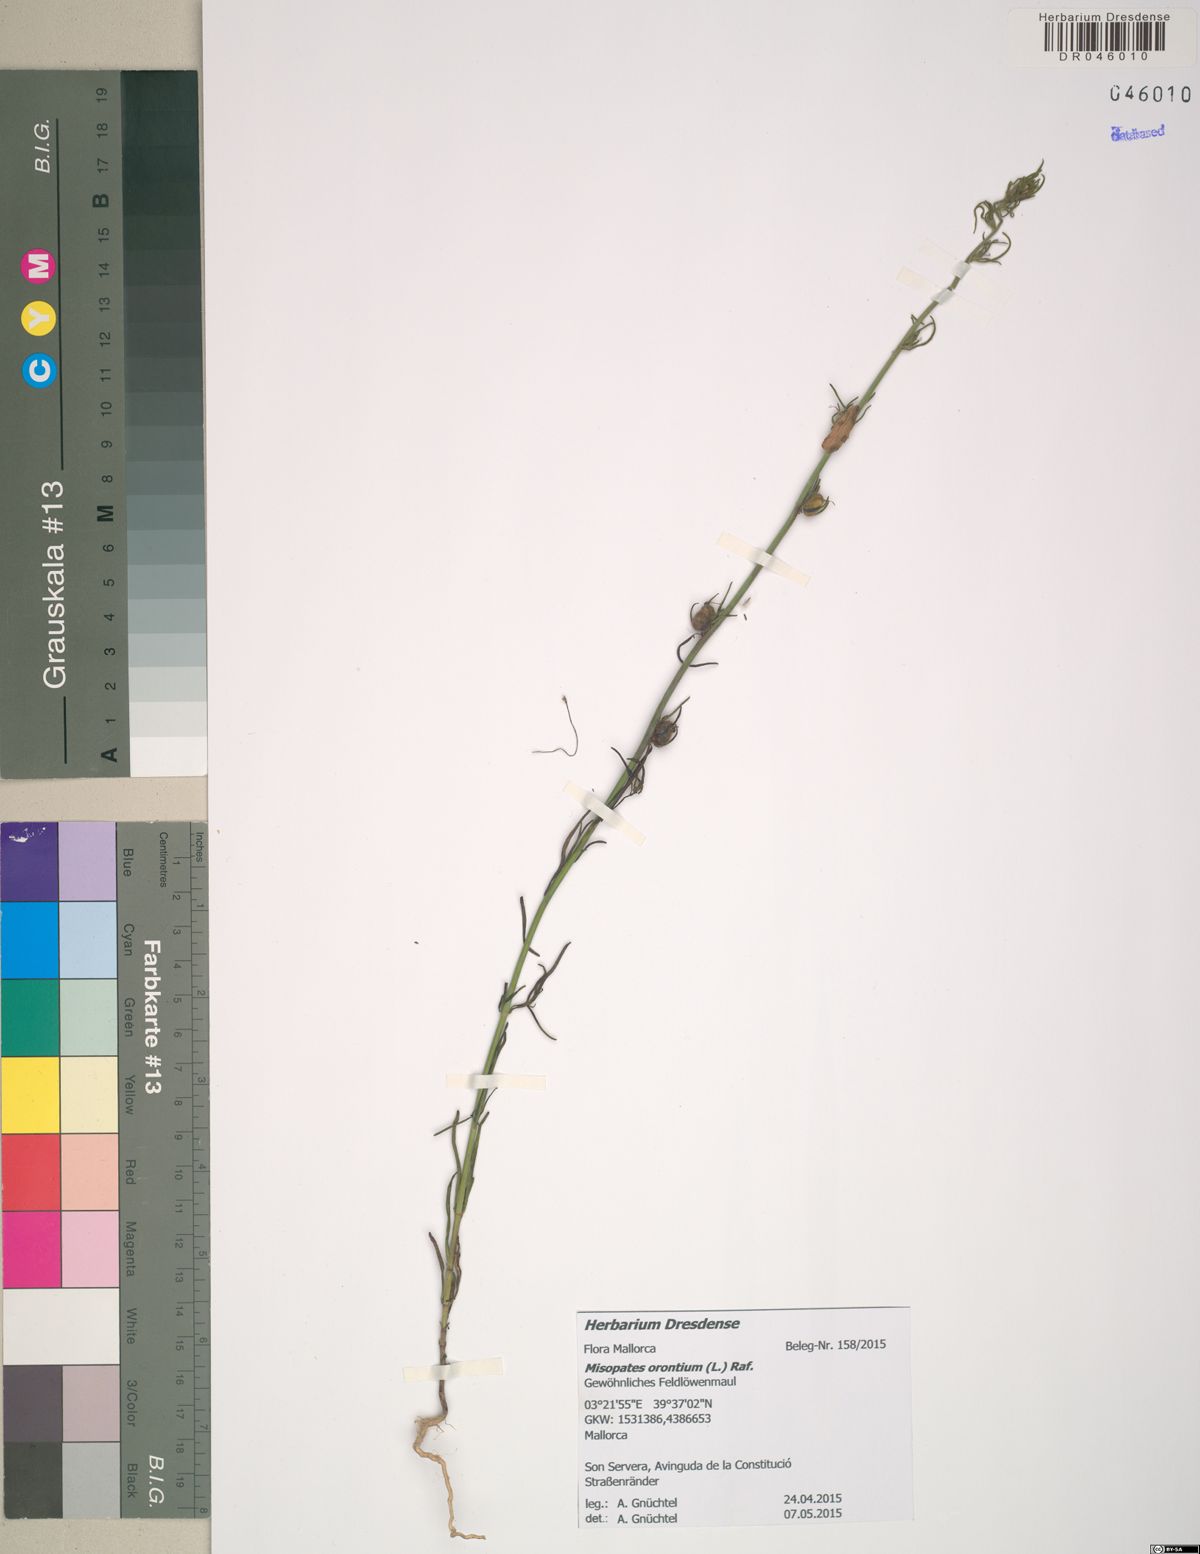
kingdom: Plantae
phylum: Tracheophyta
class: Magnoliopsida
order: Lamiales
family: Plantaginaceae
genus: Misopates
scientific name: Misopates orontium
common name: Weasel's-snout
